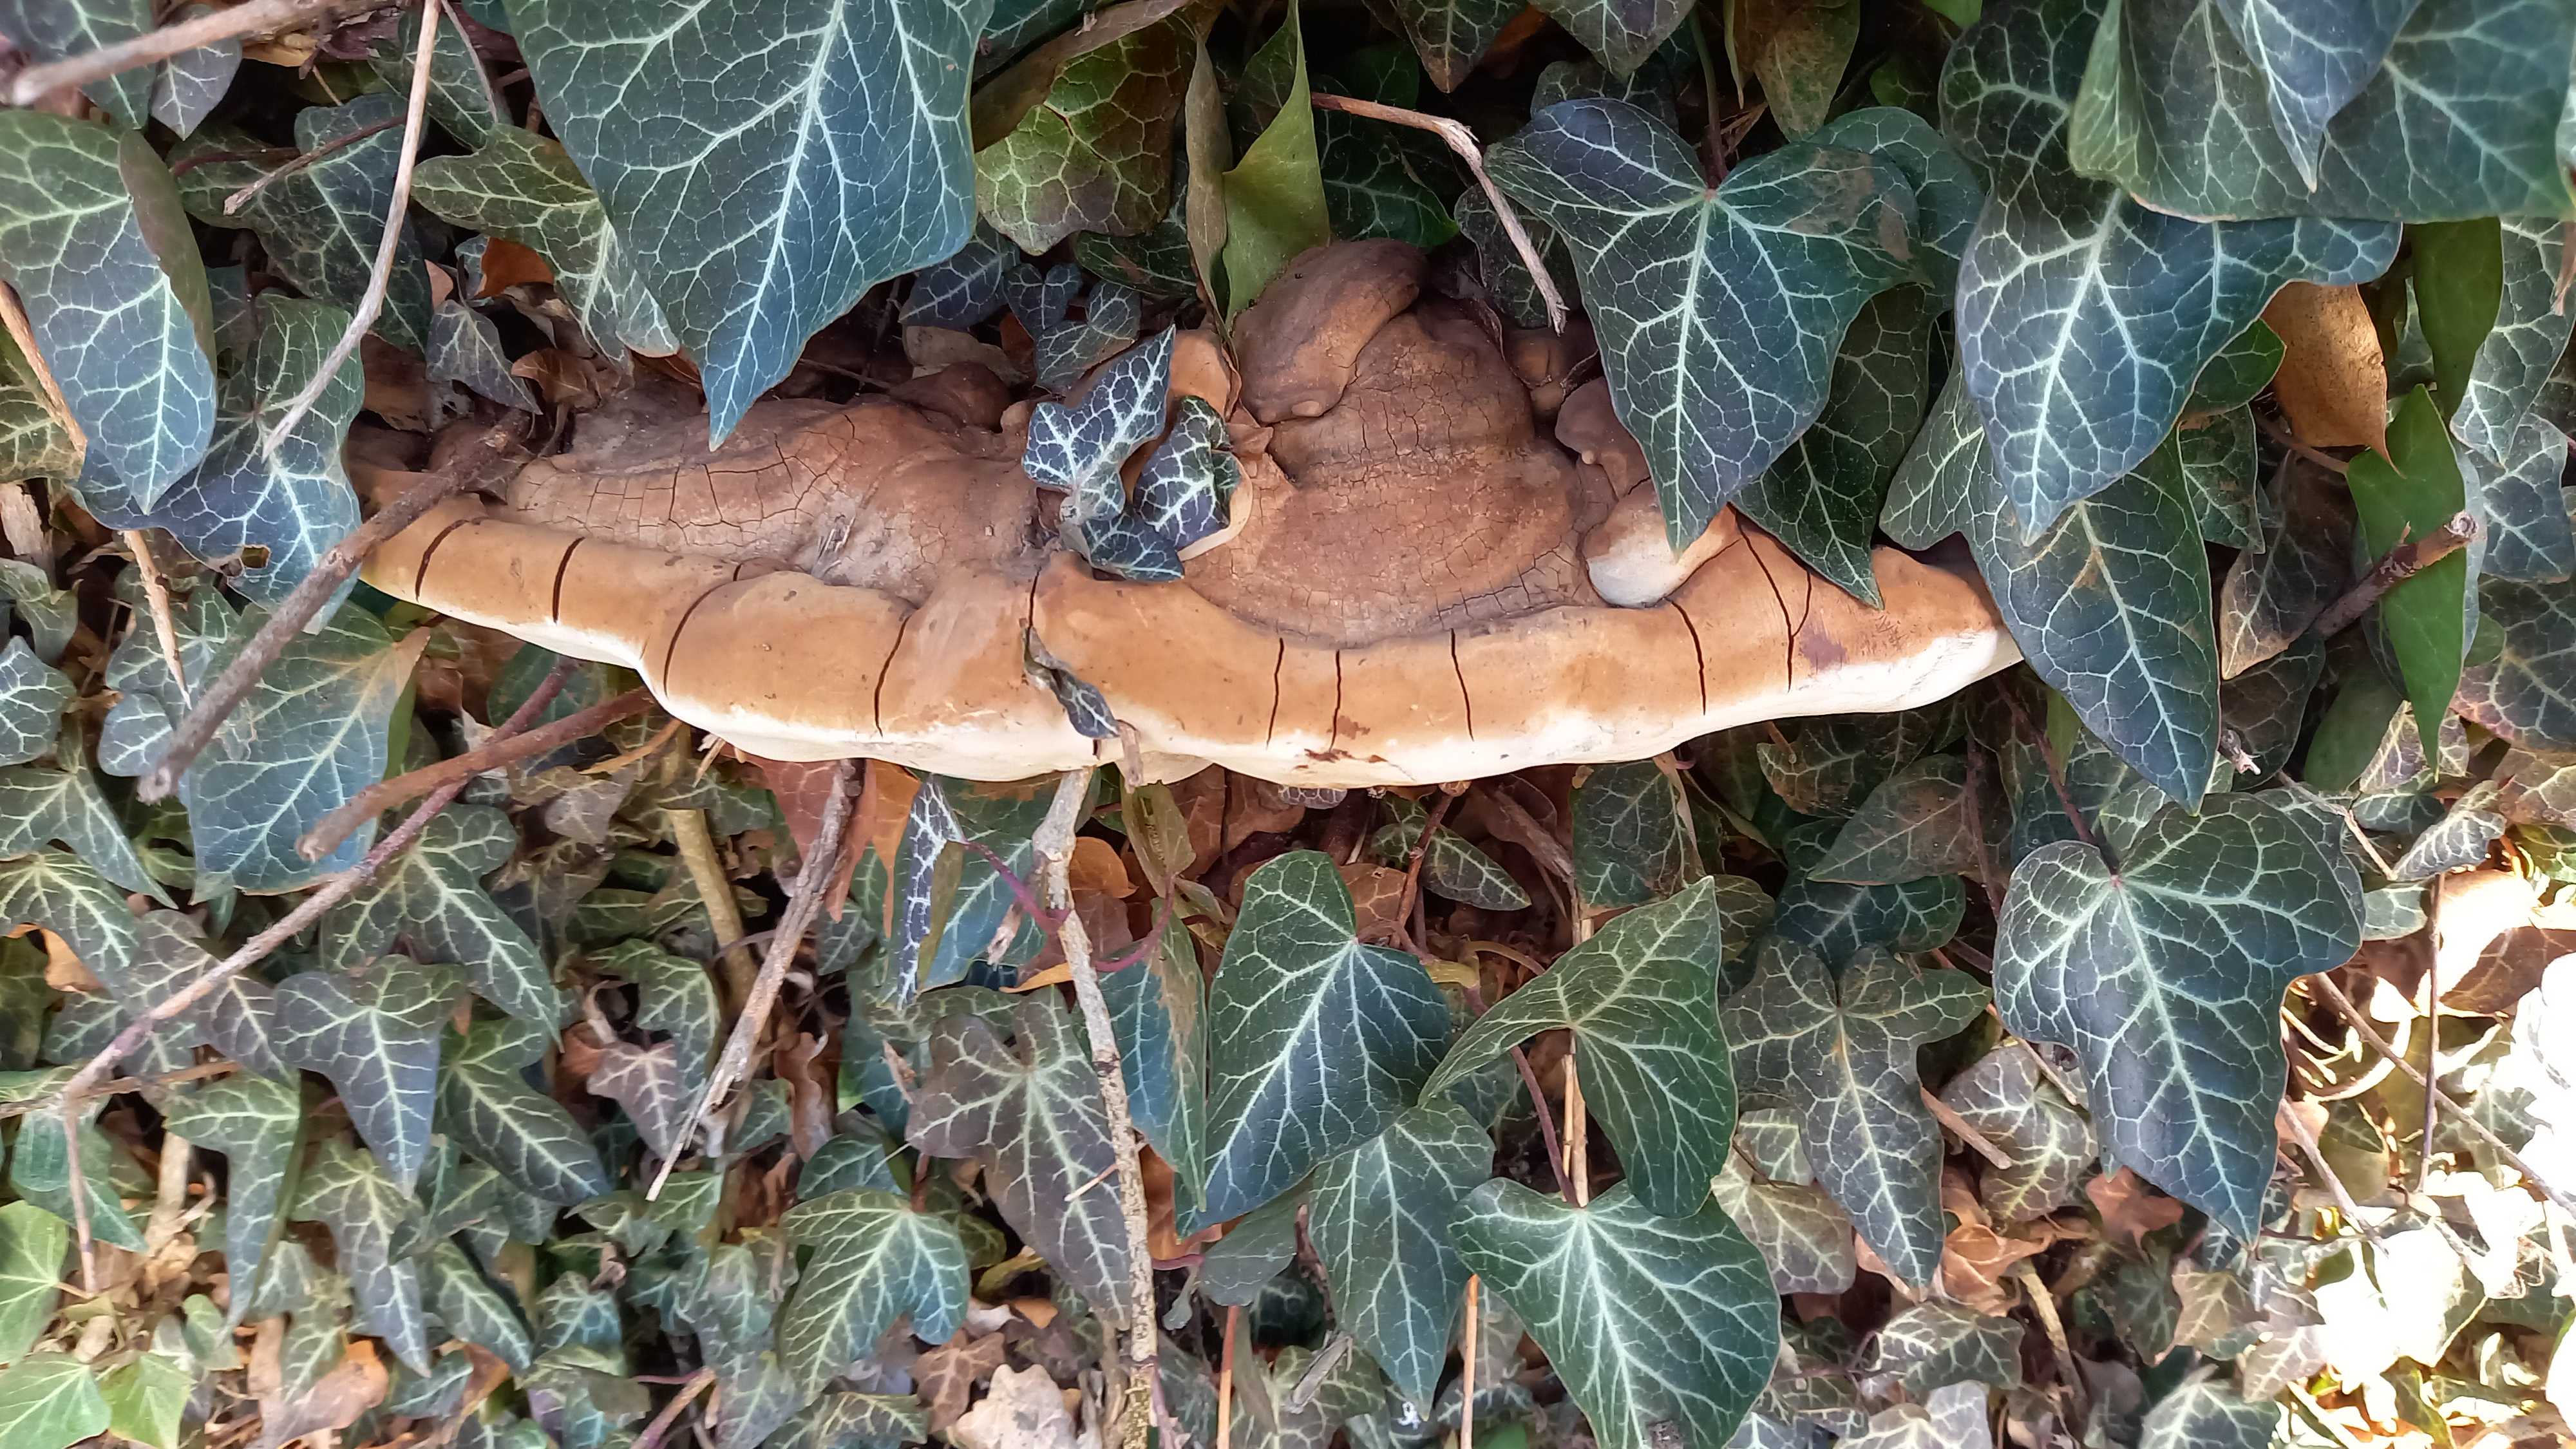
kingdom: Fungi
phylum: Basidiomycota
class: Agaricomycetes
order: Polyporales
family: Polyporaceae
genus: Ganoderma
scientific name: Ganoderma adspersum
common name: grov lakporesvamp
